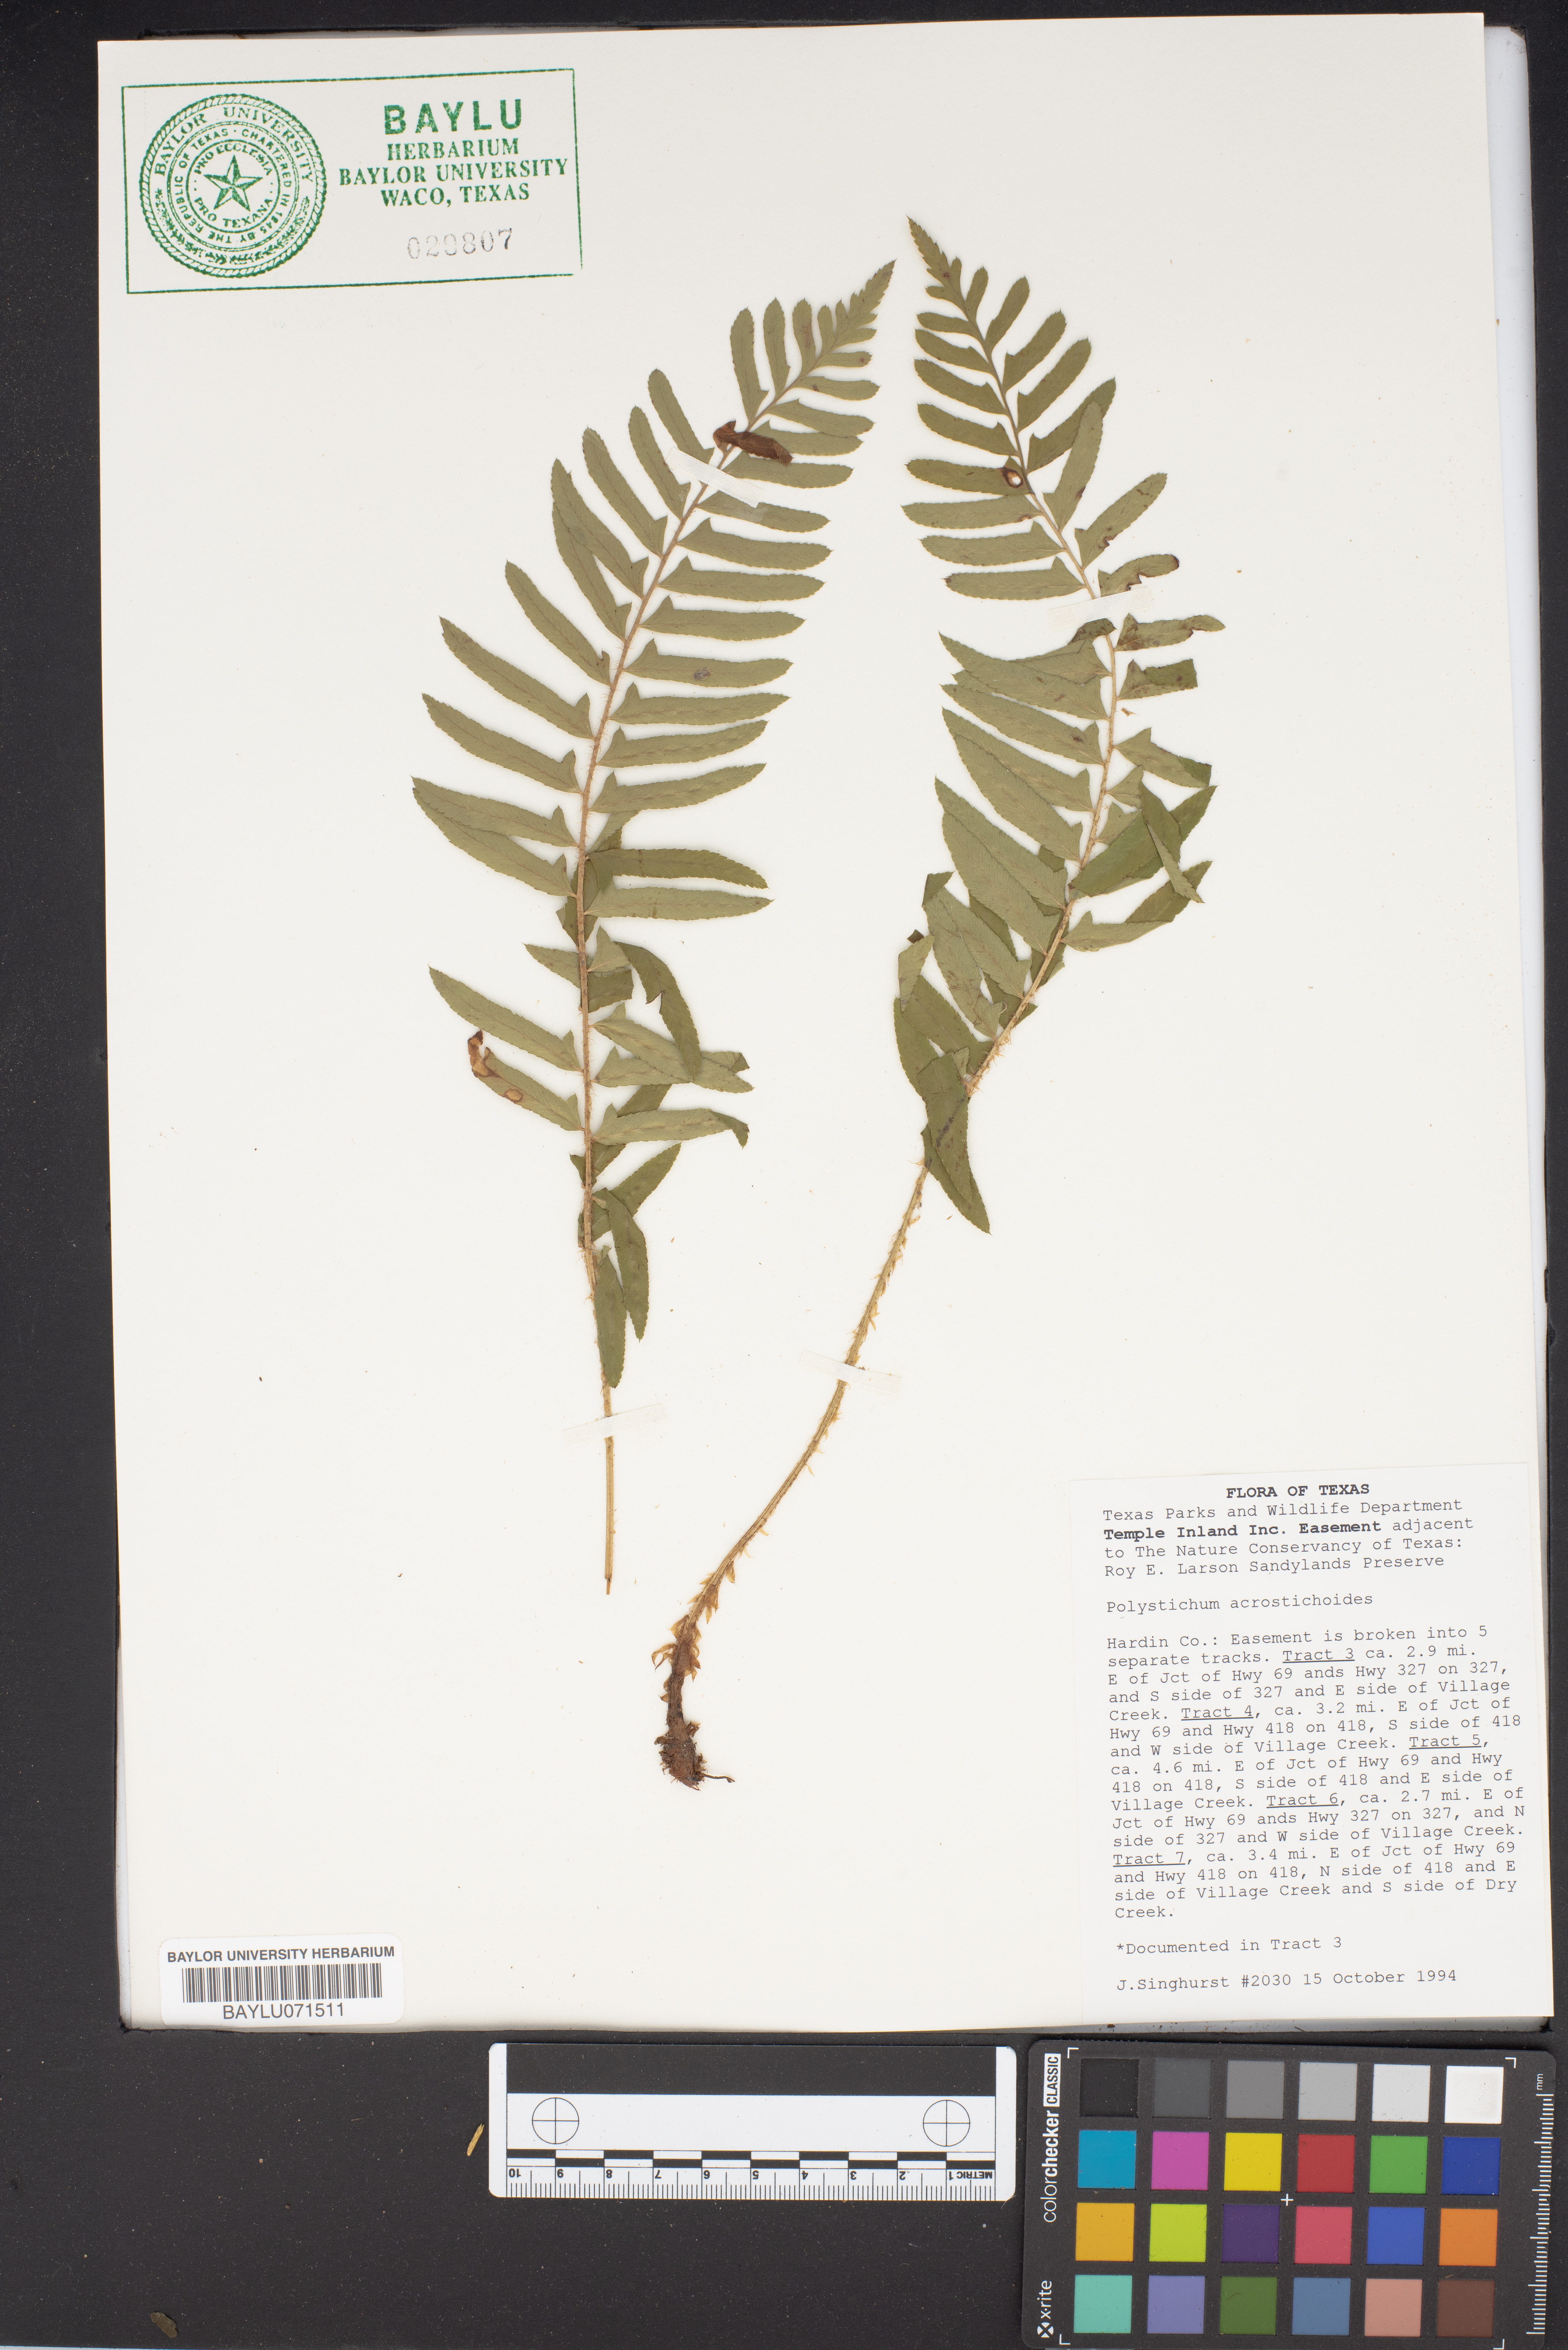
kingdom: Plantae
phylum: Tracheophyta
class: Polypodiopsida
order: Polypodiales
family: Dryopteridaceae
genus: Polystichum
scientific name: Polystichum acrostichoides
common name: Christmas fern
